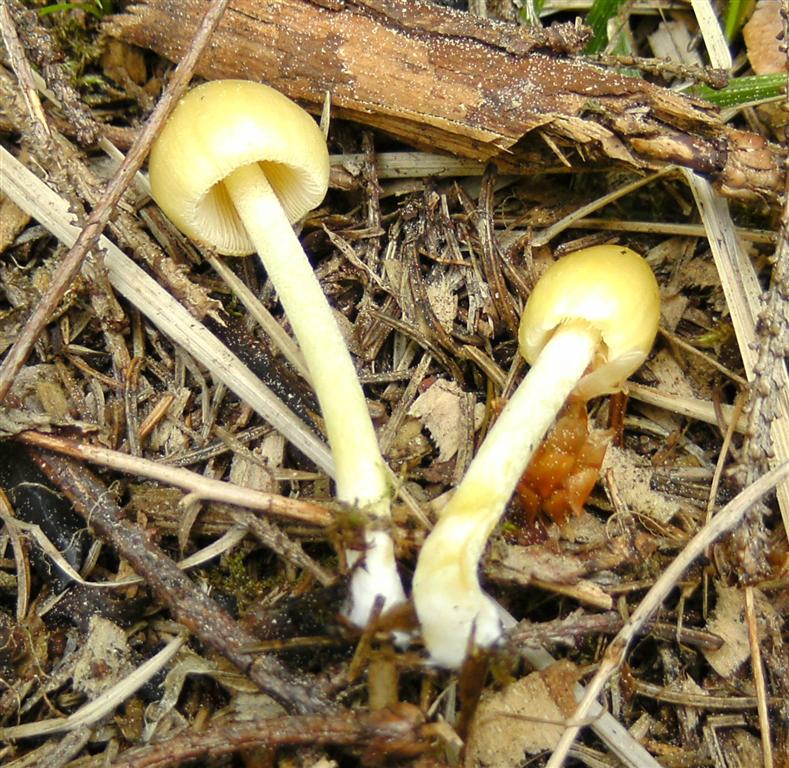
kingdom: Fungi
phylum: Basidiomycota
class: Agaricomycetes
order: Agaricales
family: Bolbitiaceae
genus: Bolbitius
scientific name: Bolbitius titubans
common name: almindelig gulhat
